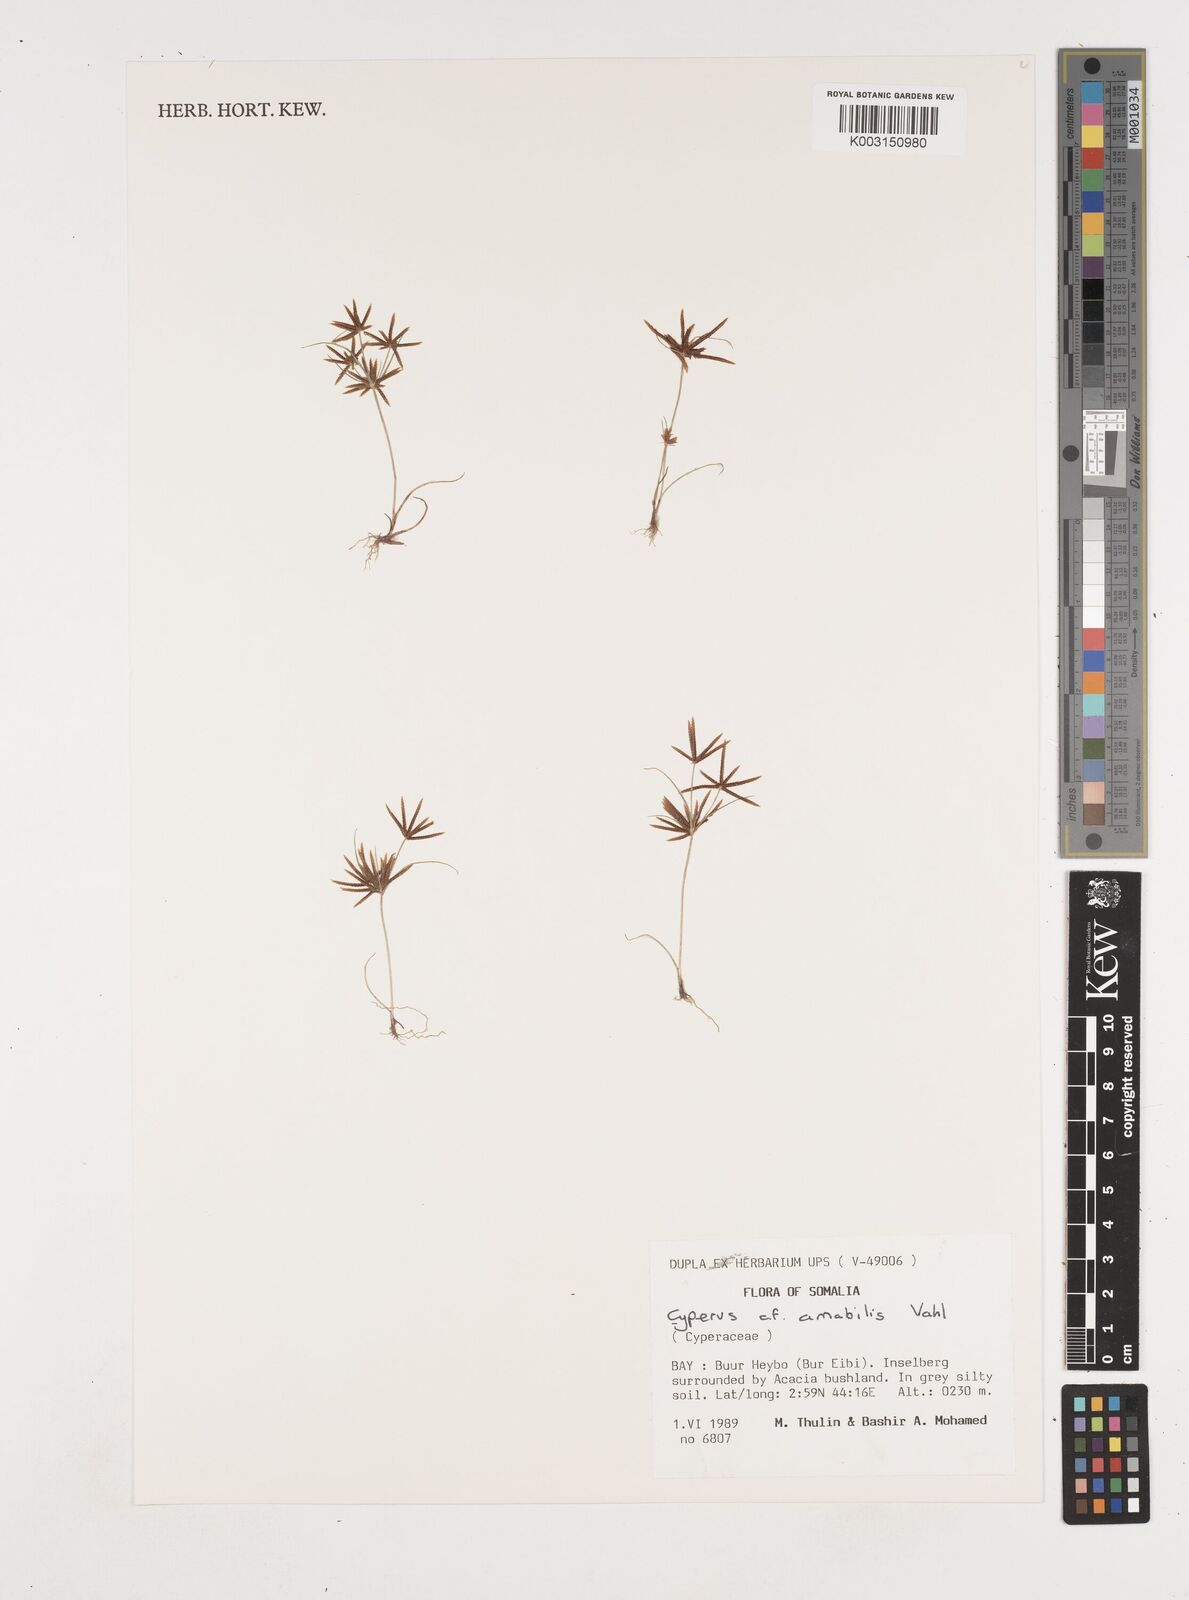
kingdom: Plantae
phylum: Tracheophyta
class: Liliopsida
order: Poales
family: Cyperaceae
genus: Cyperus
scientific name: Cyperus amabilis
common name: Foothill flat sedge
